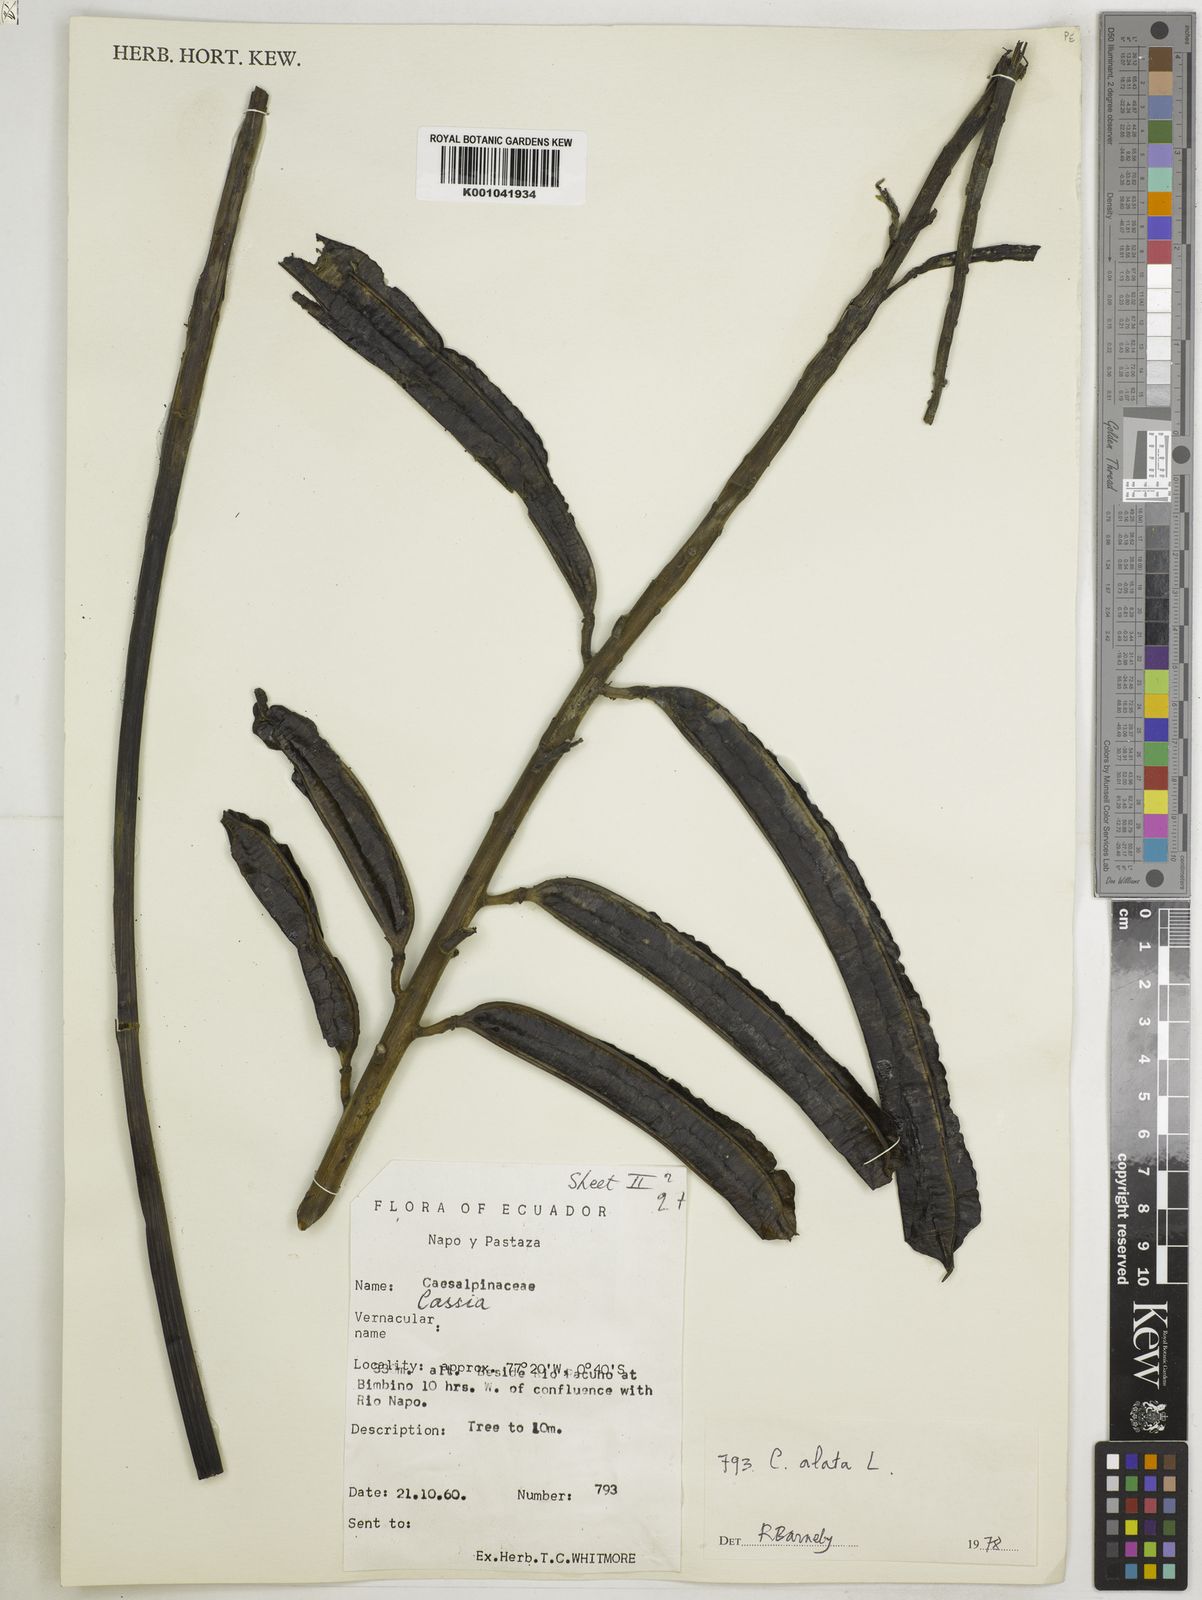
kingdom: Plantae
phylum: Tracheophyta
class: Magnoliopsida
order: Fabales
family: Fabaceae
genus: Senna
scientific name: Senna alata
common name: Emperor's candlesticks
